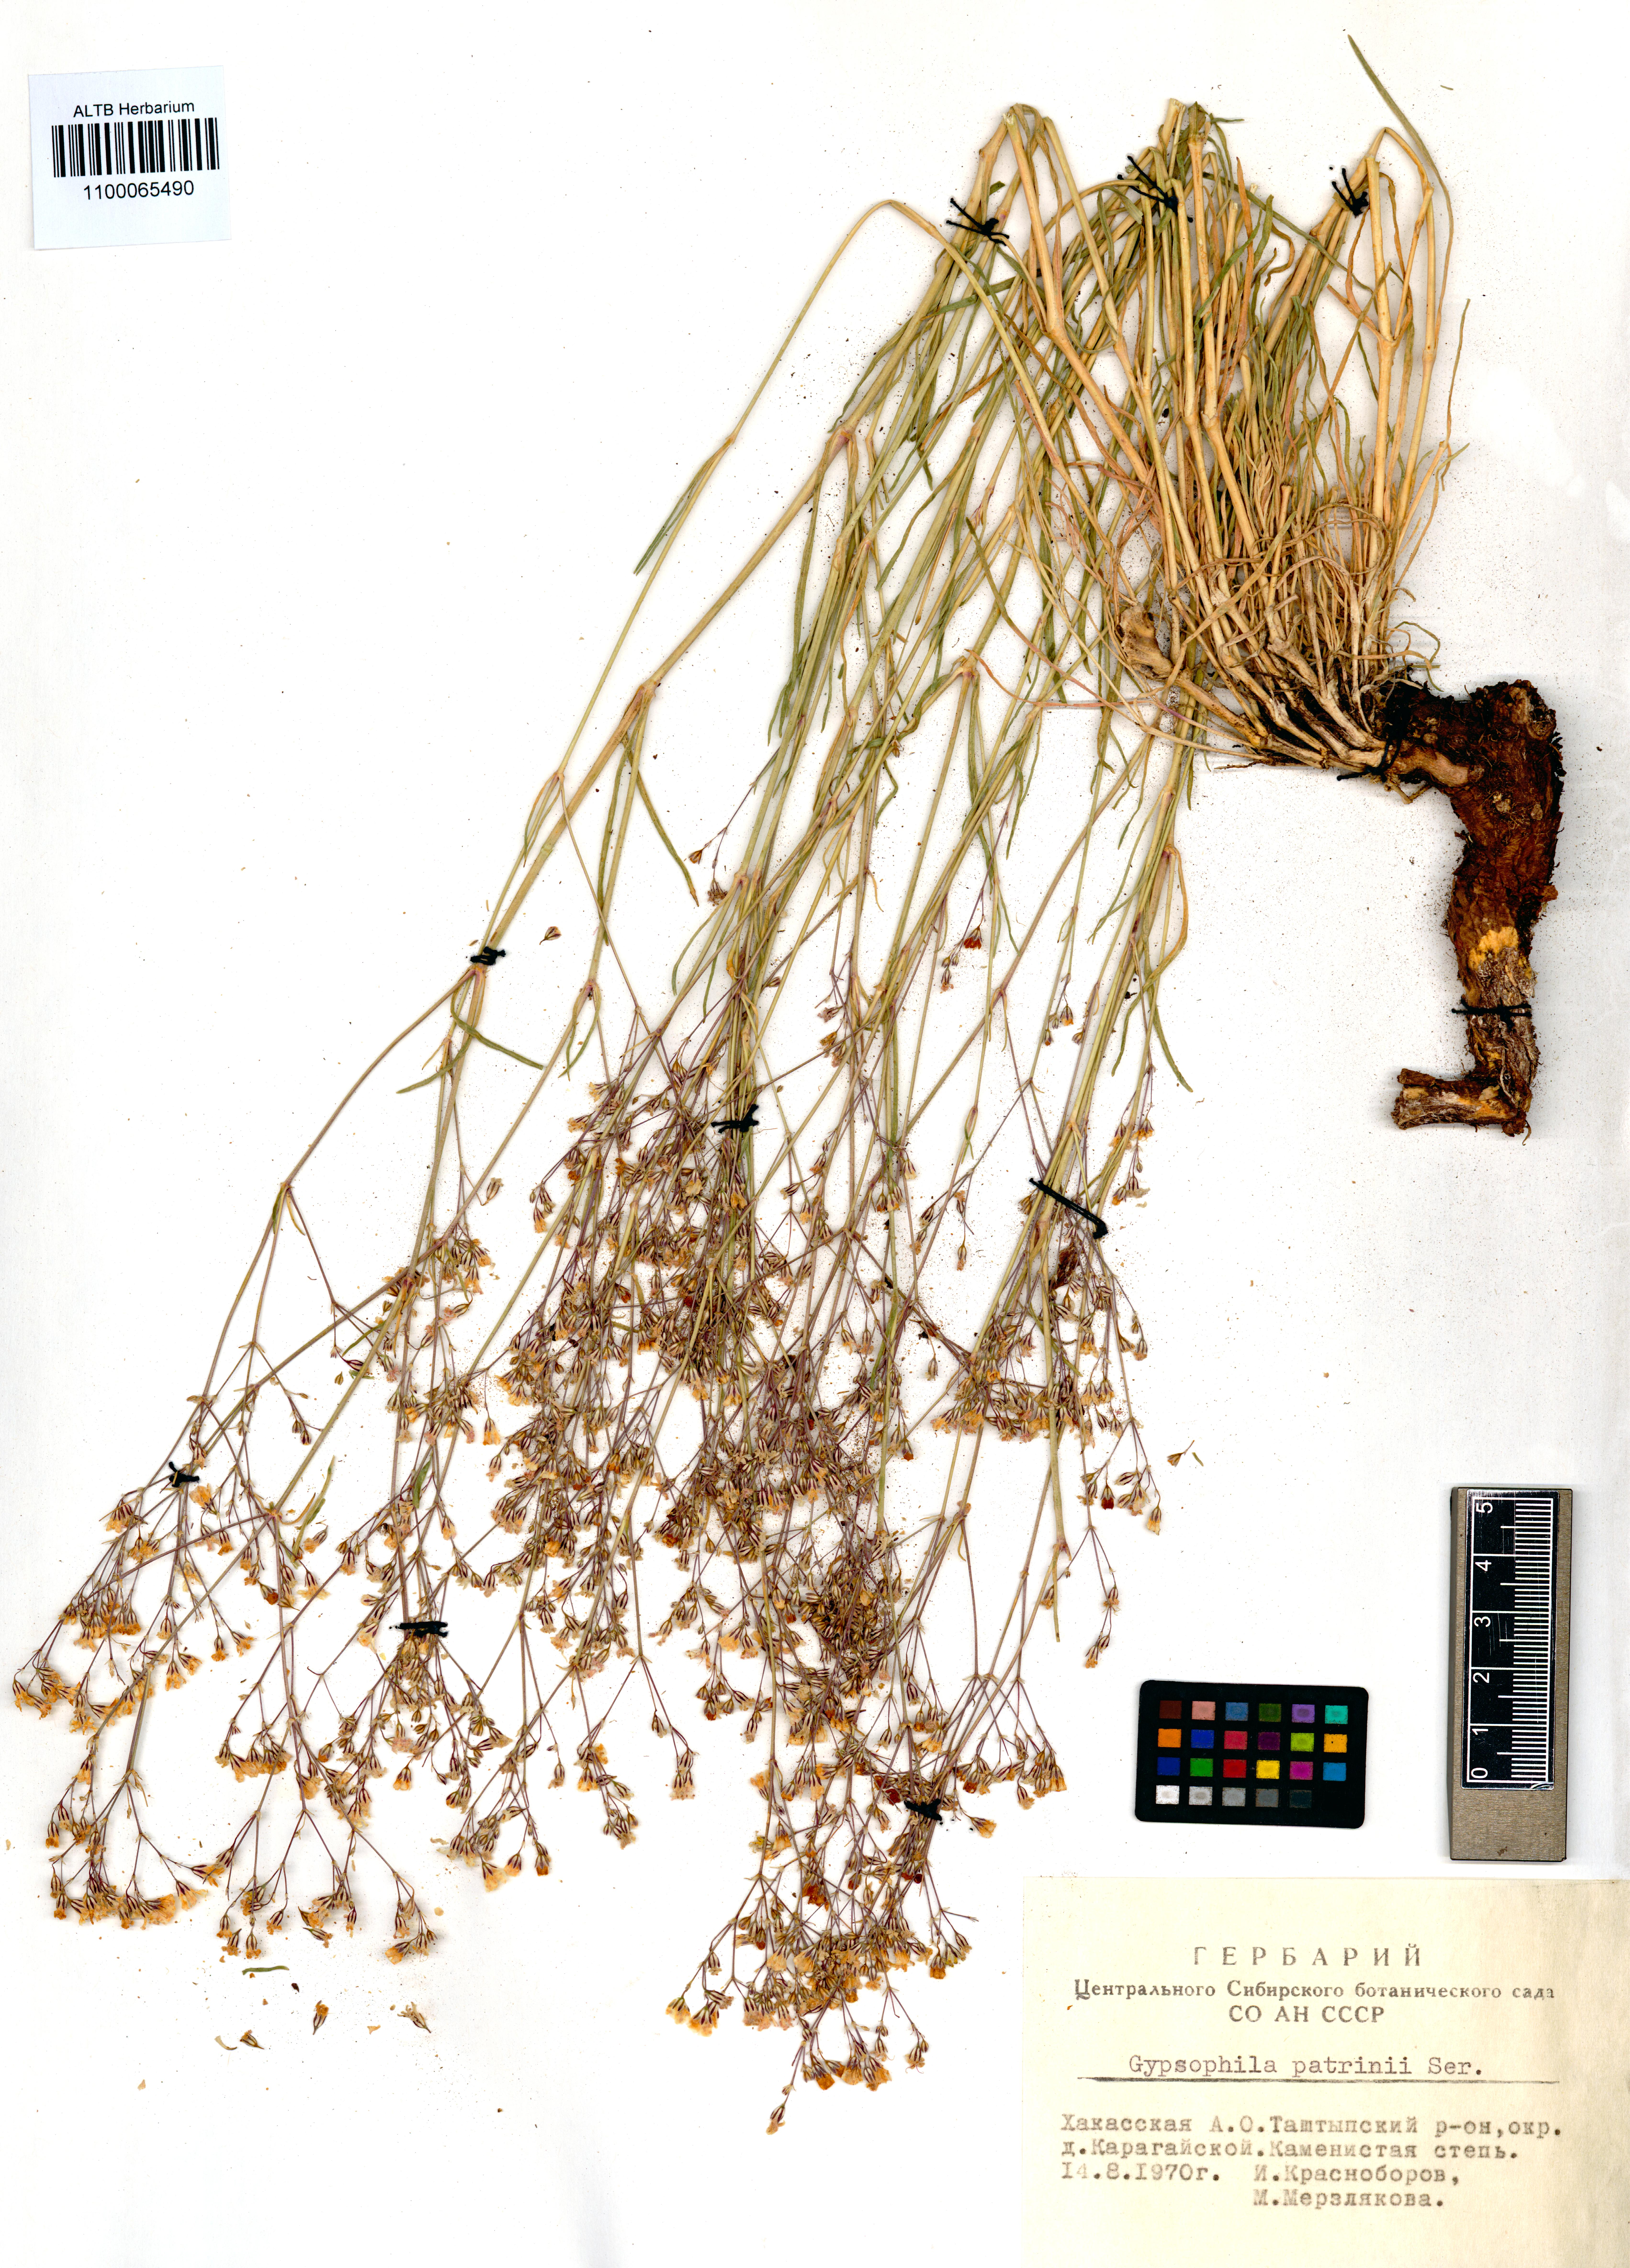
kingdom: Plantae
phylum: Tracheophyta
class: Magnoliopsida
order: Caryophyllales
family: Caryophyllaceae
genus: Gypsophila
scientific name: Gypsophila patrinii
